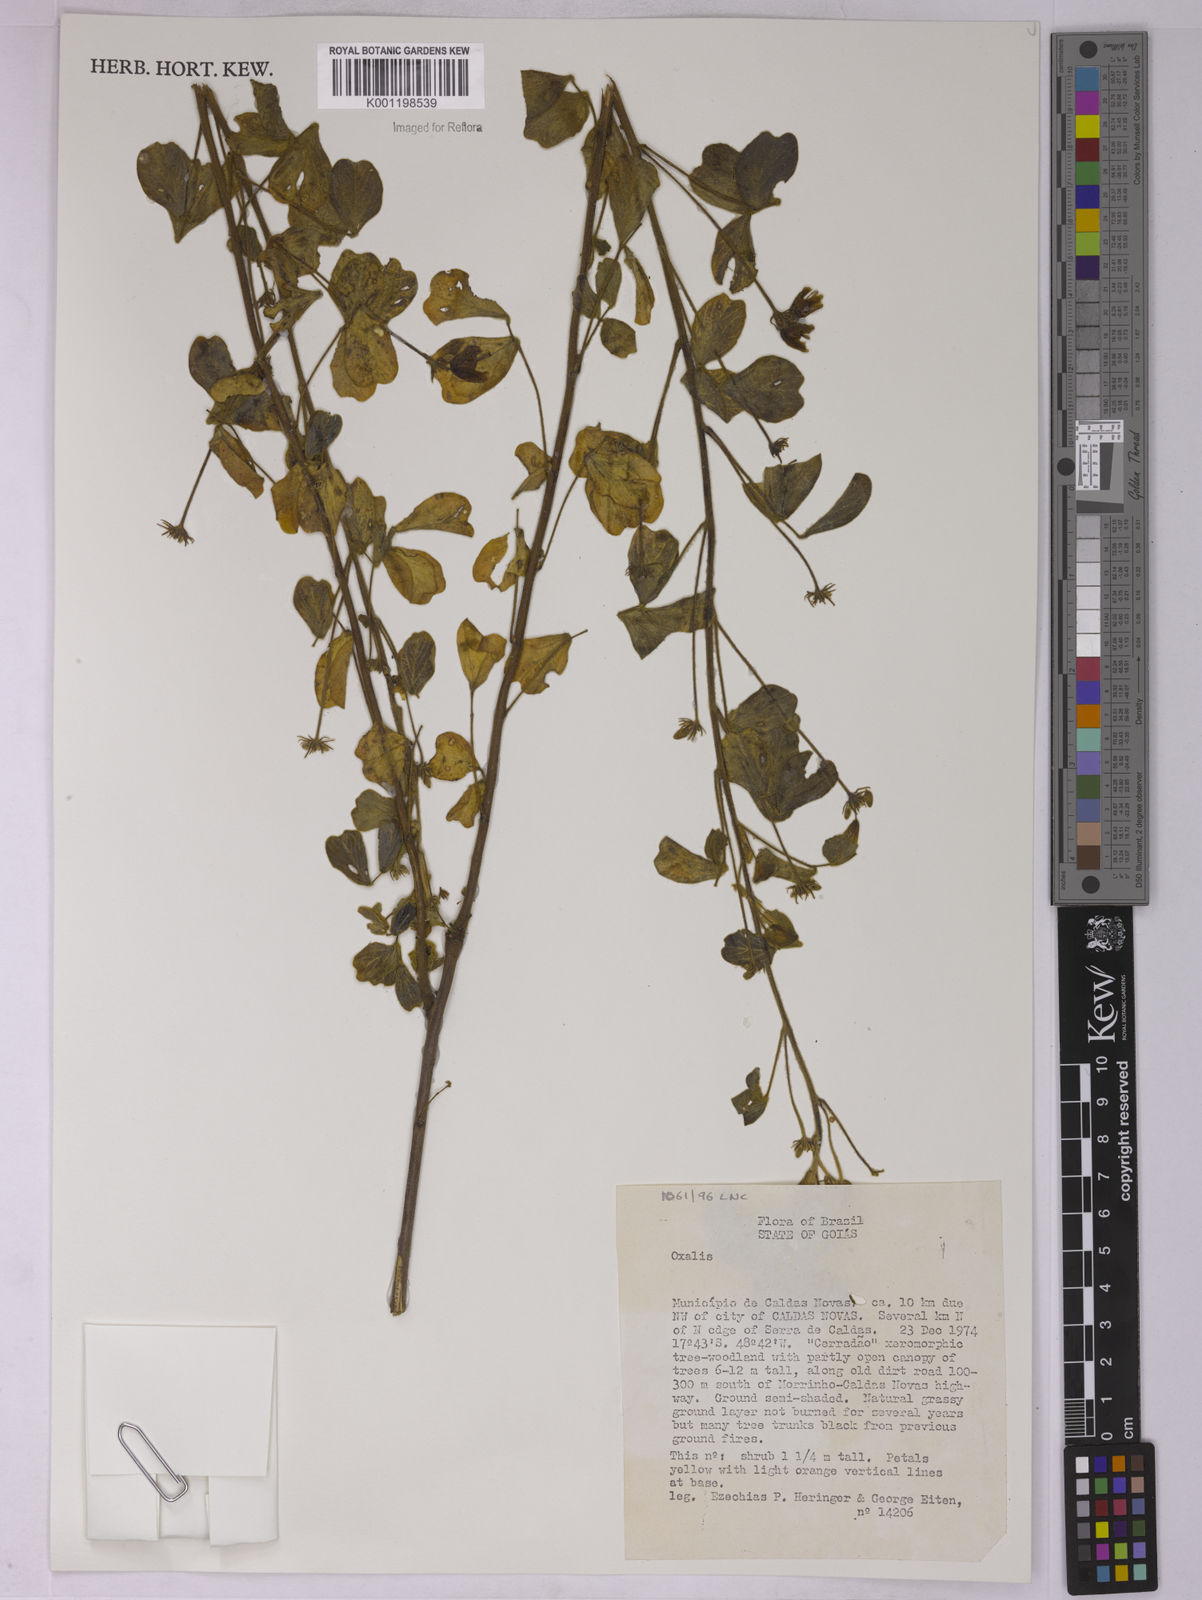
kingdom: Plantae
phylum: Tracheophyta
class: Magnoliopsida
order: Oxalidales
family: Oxalidaceae
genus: Oxalis
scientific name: Oxalis
